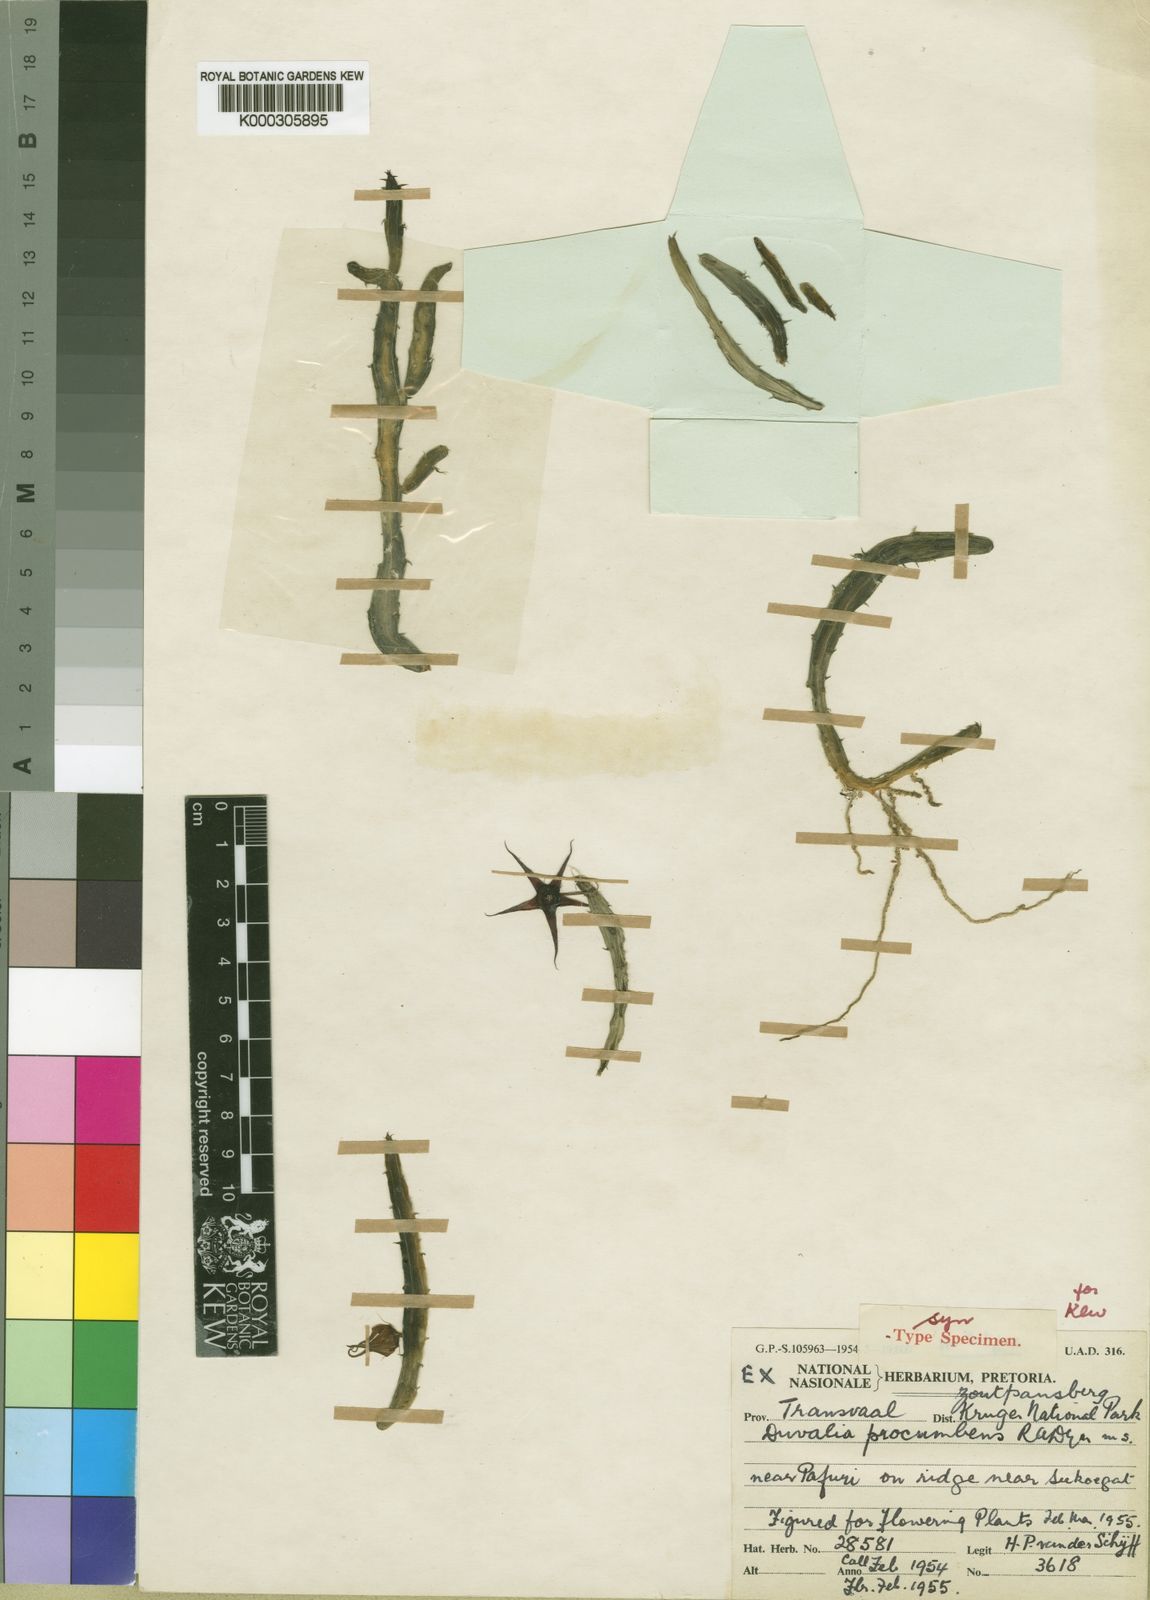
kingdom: Plantae
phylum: Tracheophyta
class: Magnoliopsida
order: Gentianales
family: Apocynaceae
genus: Ceropegia
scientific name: Ceropegia procumbentior
